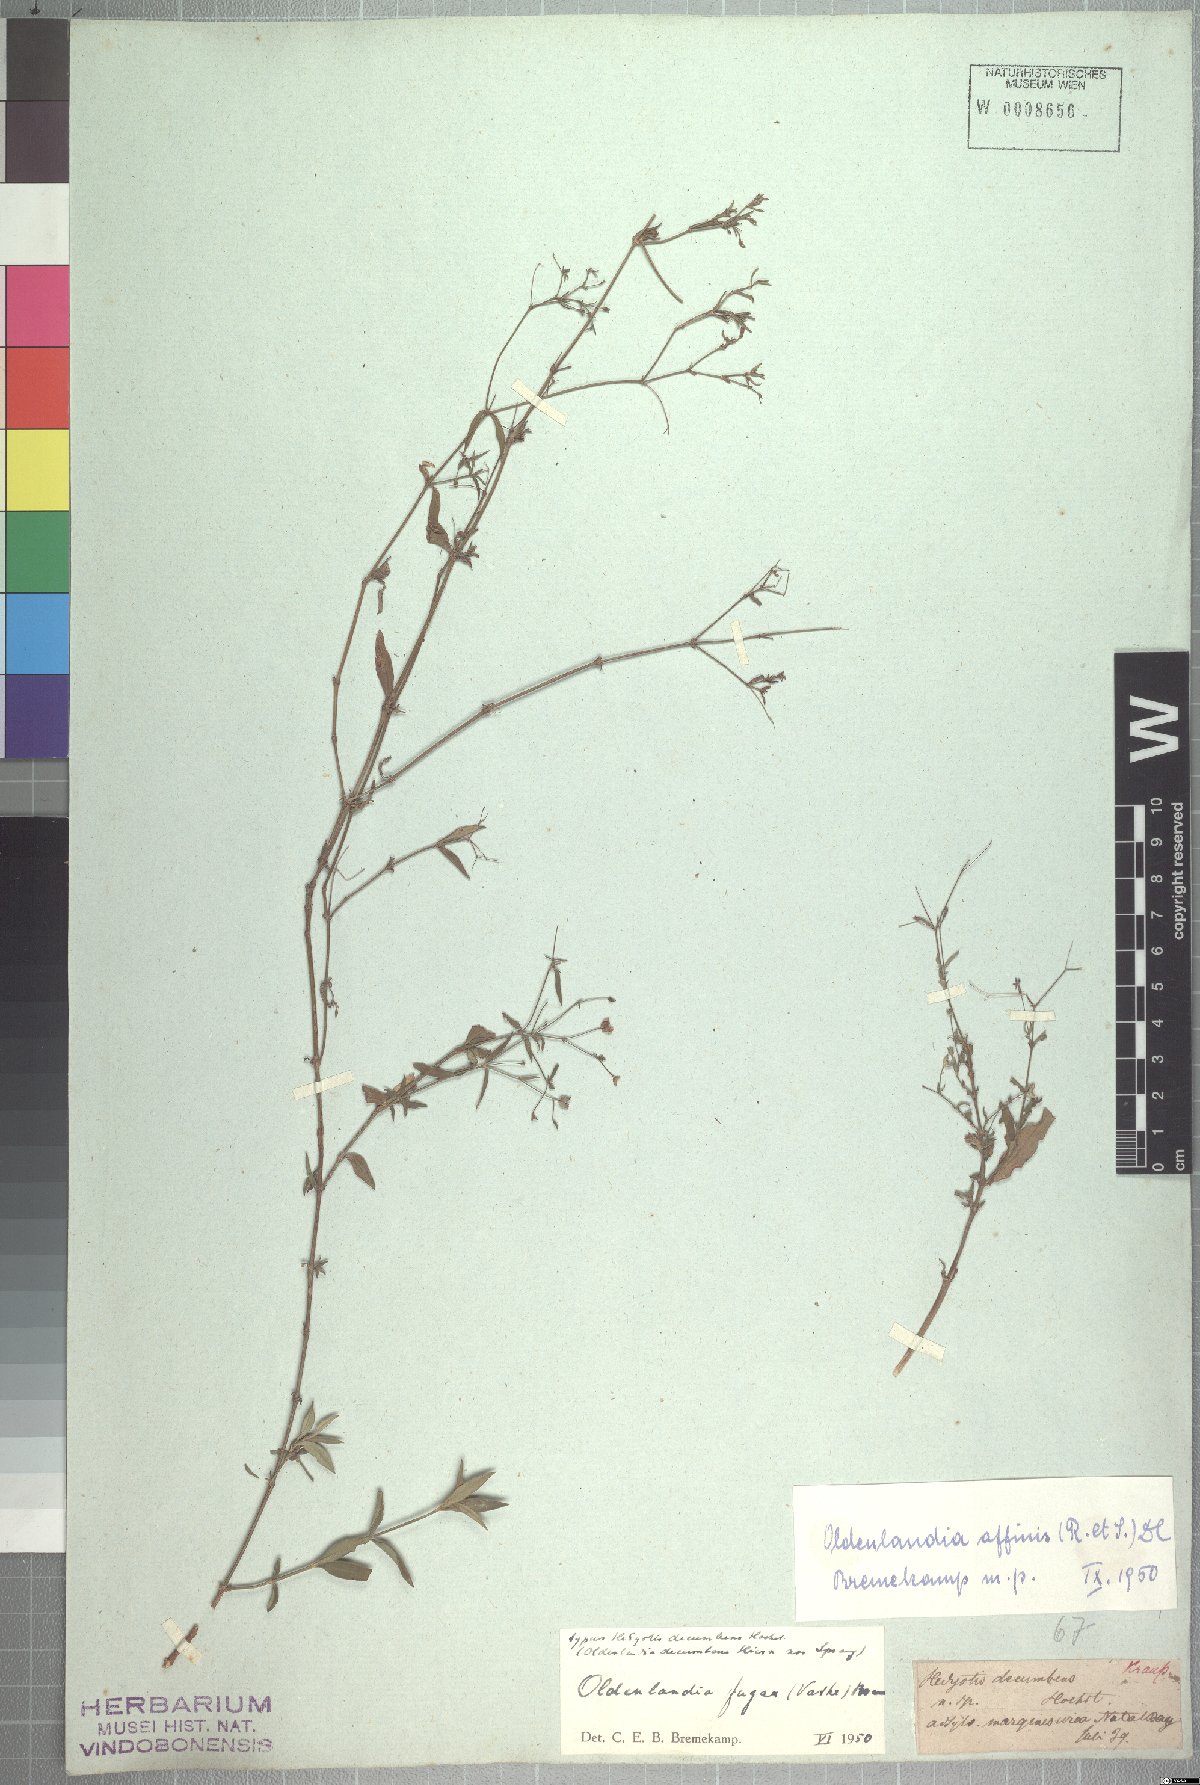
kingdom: Plantae
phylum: Tracheophyta
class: Magnoliopsida
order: Gentianales
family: Rubiaceae
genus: Oldenlandia
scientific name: Oldenlandia affinis
